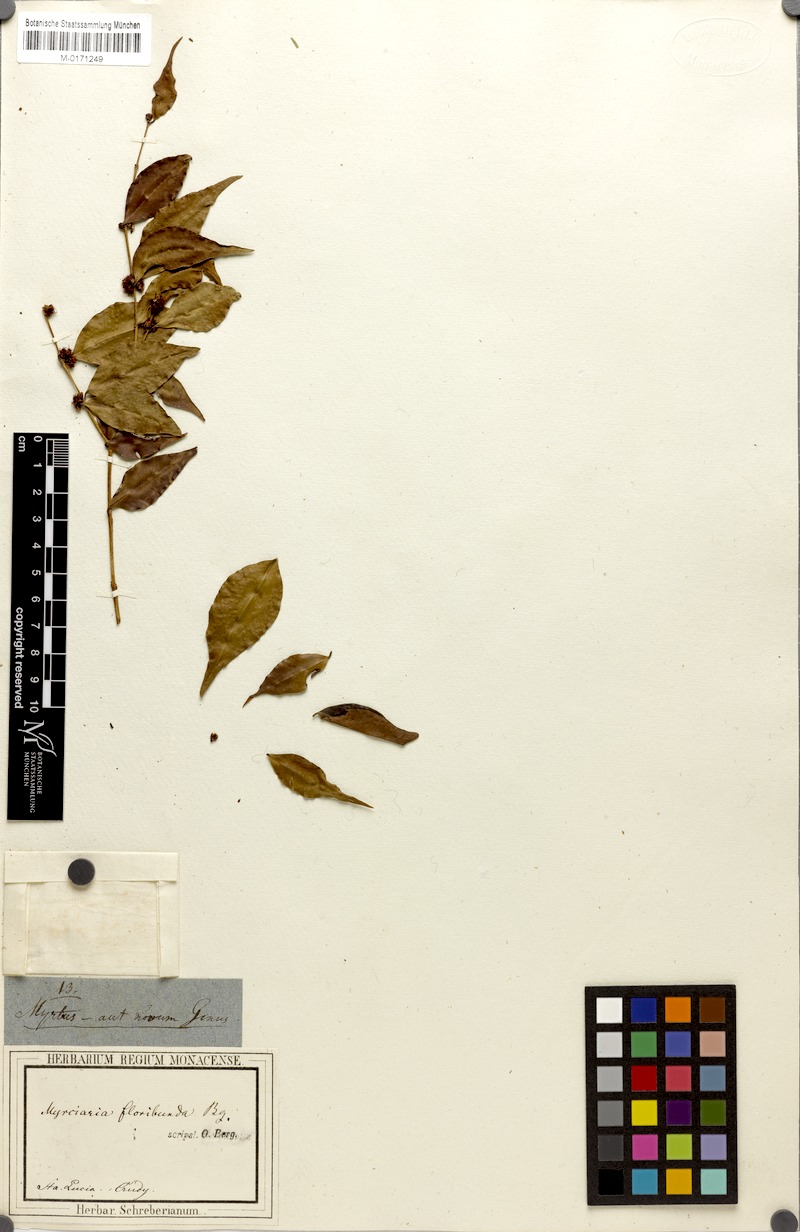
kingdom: Plantae
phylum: Tracheophyta
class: Magnoliopsida
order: Myrtales
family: Myrtaceae
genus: Myrciaria
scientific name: Myrciaria floribunda
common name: Guavaberry
